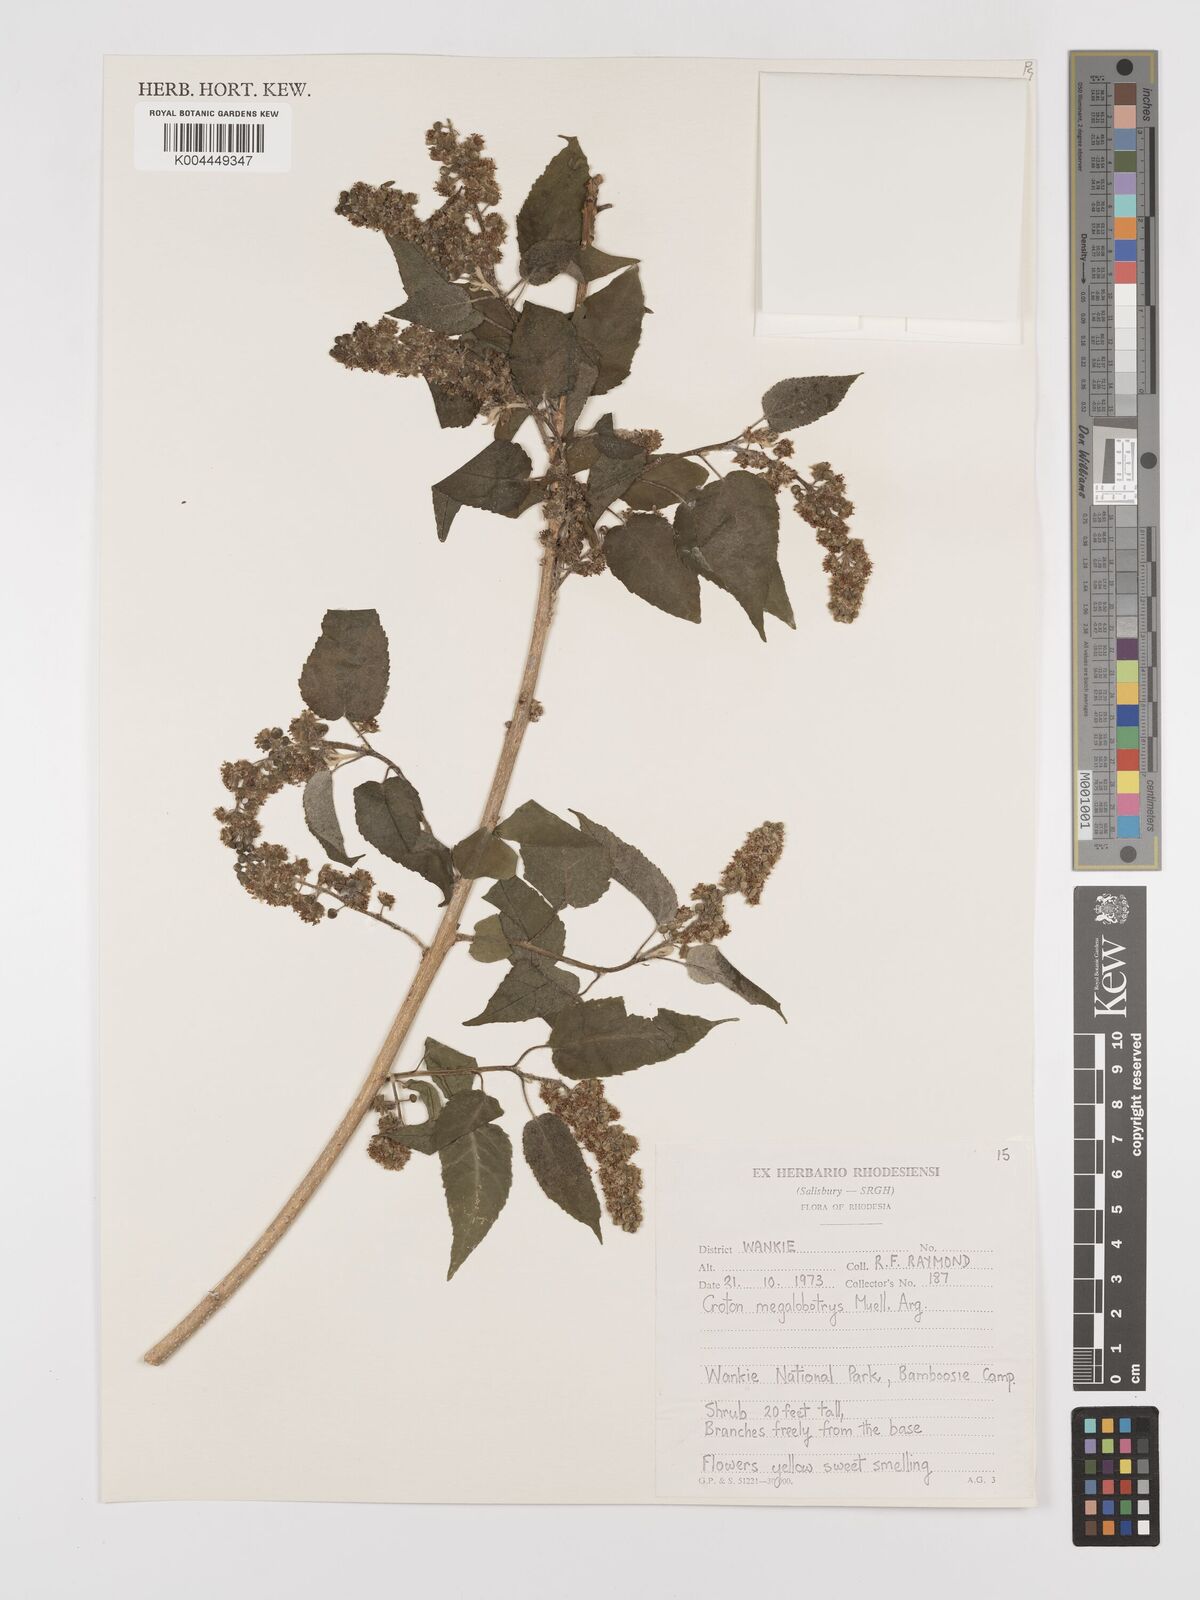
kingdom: Plantae
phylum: Tracheophyta
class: Magnoliopsida
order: Malpighiales
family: Euphorbiaceae
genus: Croton
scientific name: Croton megalobotrys
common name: Large fever berry
